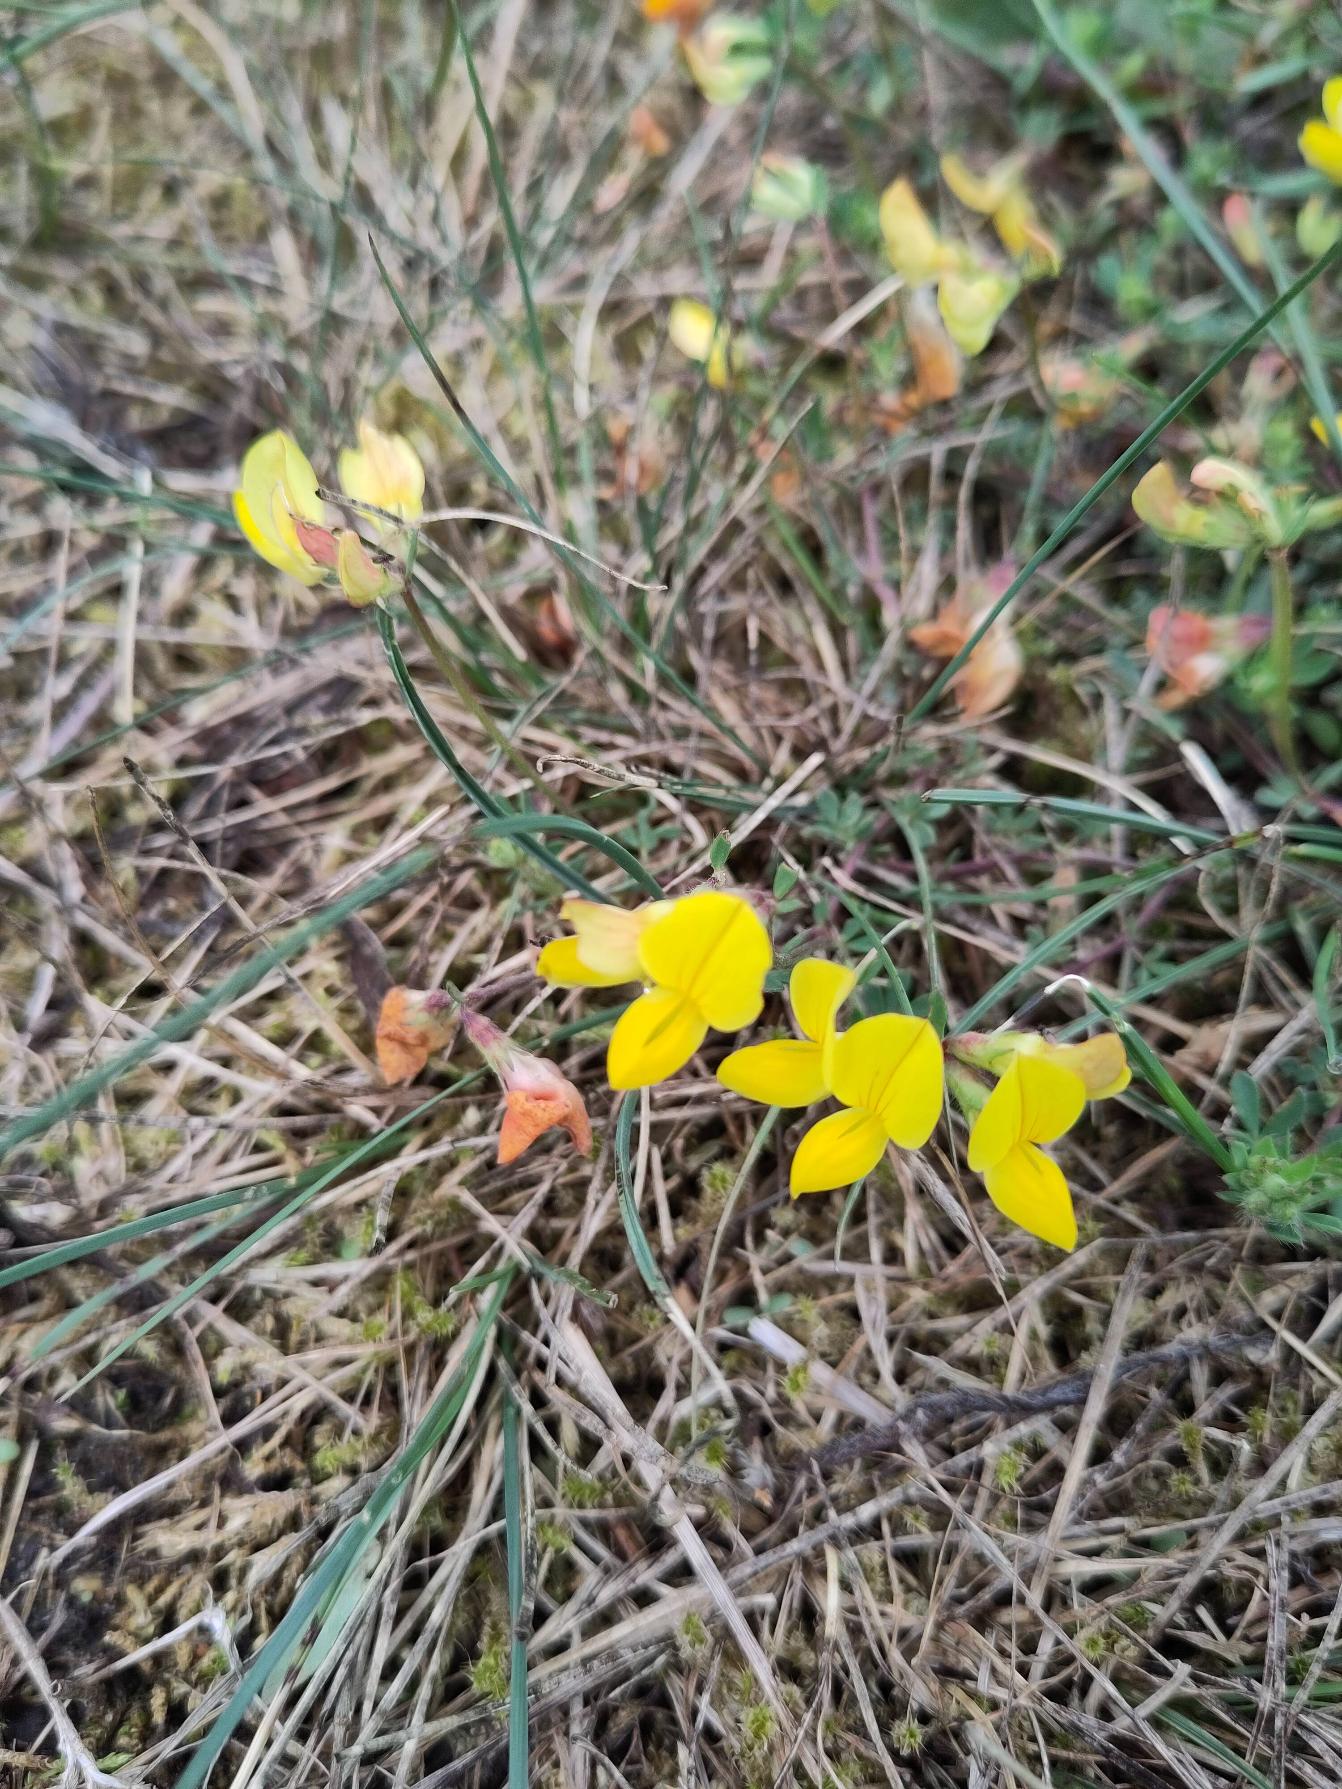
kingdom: Plantae
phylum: Tracheophyta
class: Magnoliopsida
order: Fabales
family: Fabaceae
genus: Lotus
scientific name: Lotus corniculatus
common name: Almindelig kællingetand (varietet)
